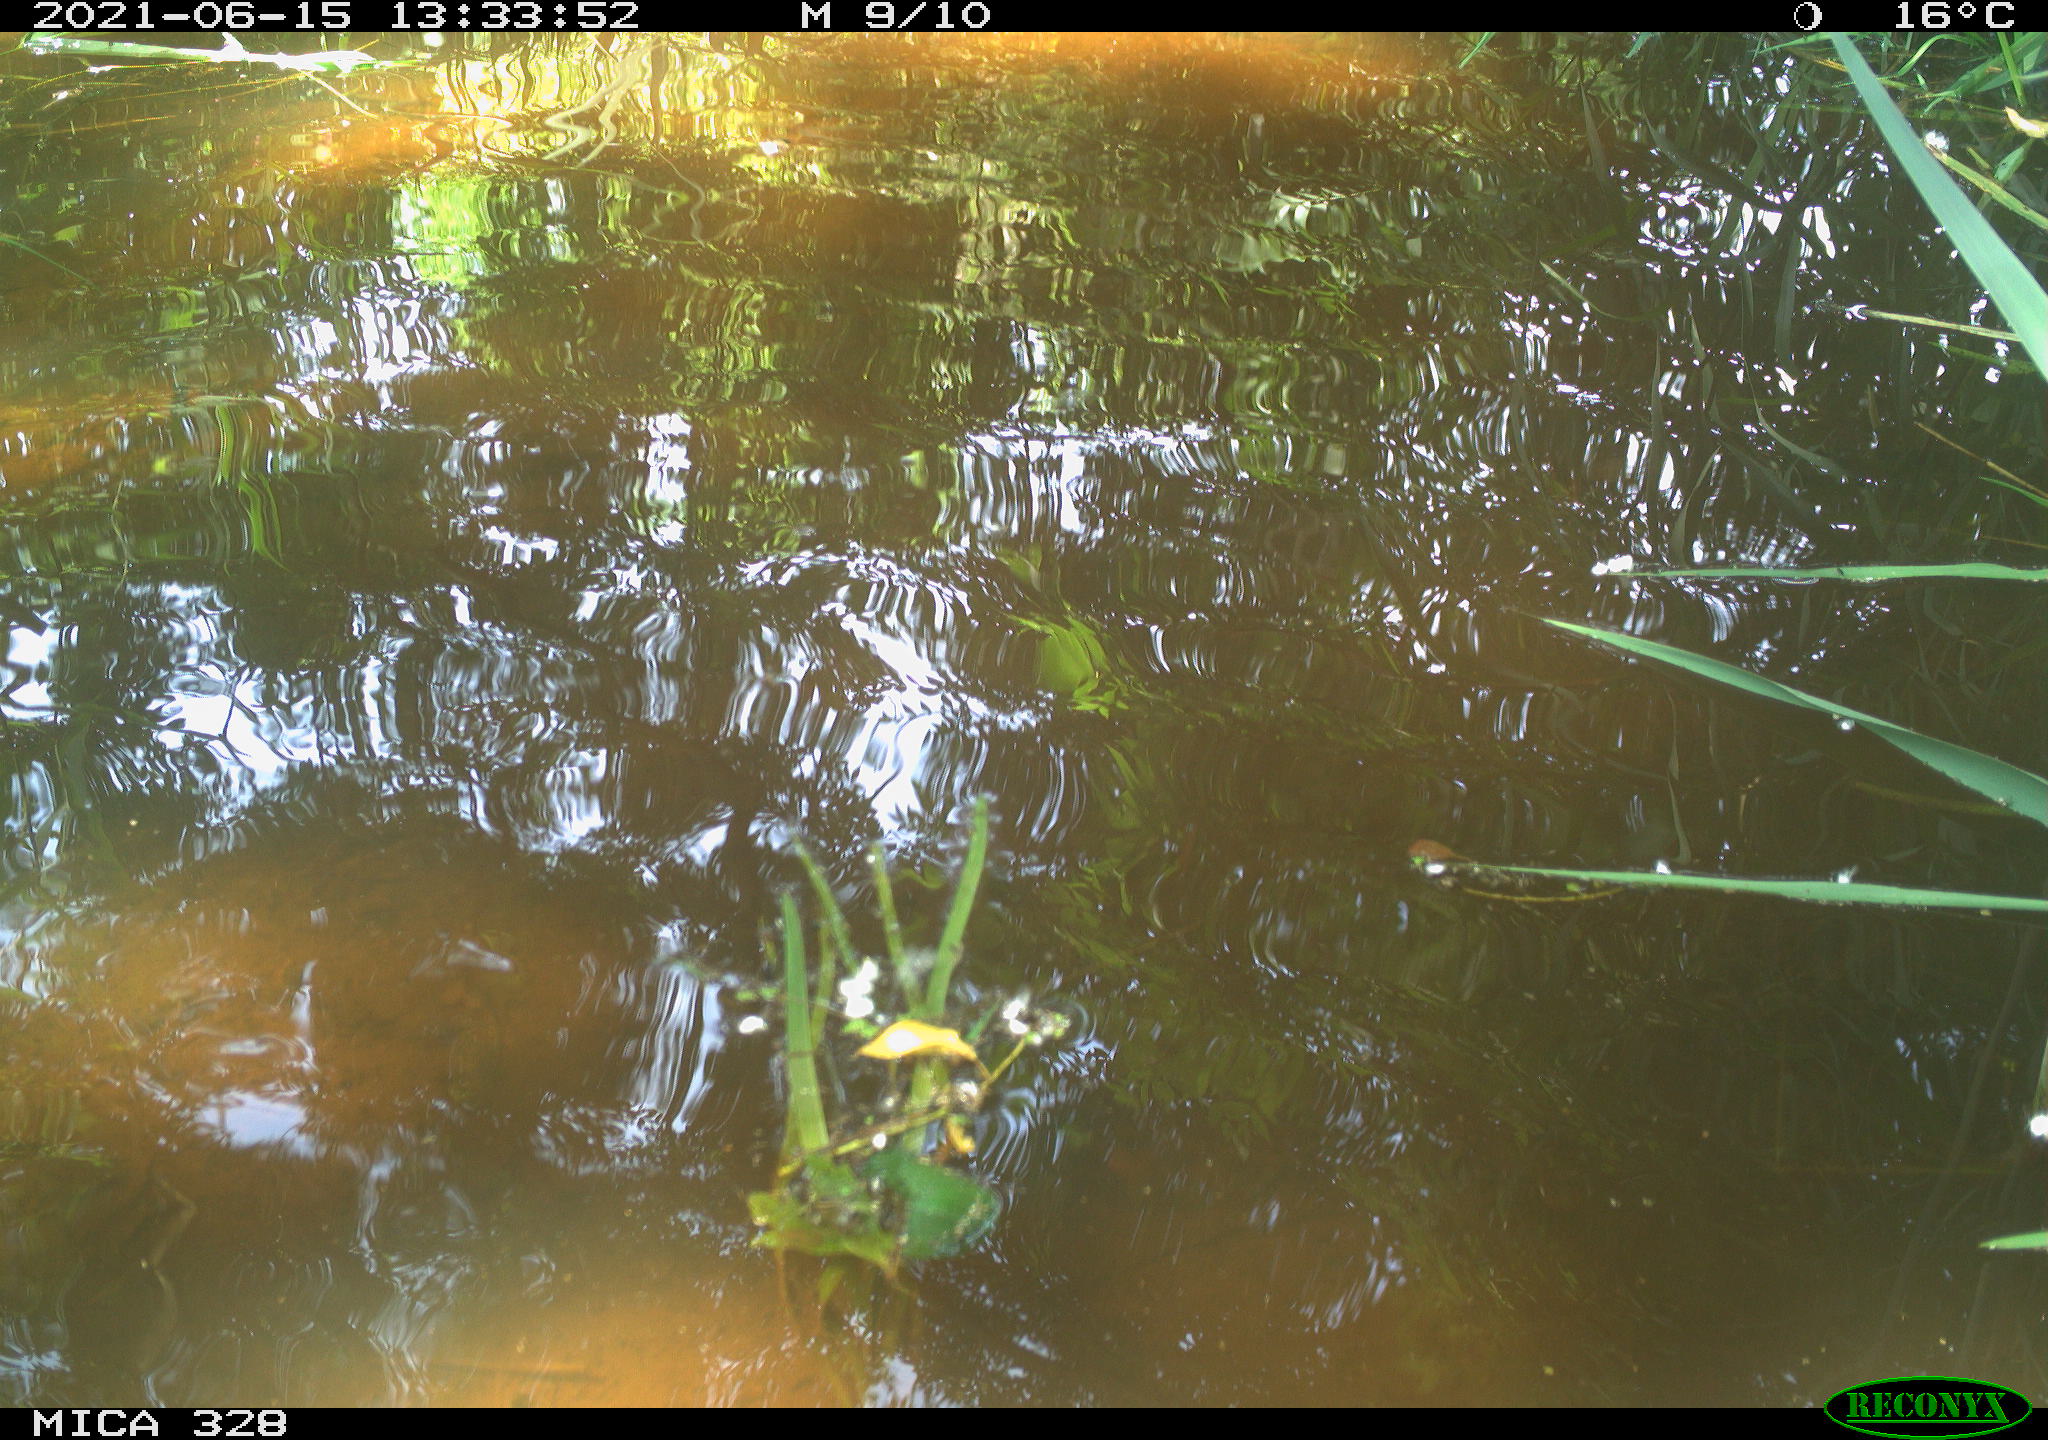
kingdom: Animalia
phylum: Chordata
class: Aves
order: Anseriformes
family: Anatidae
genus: Aix
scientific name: Aix galericulata
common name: Mandarin duck
